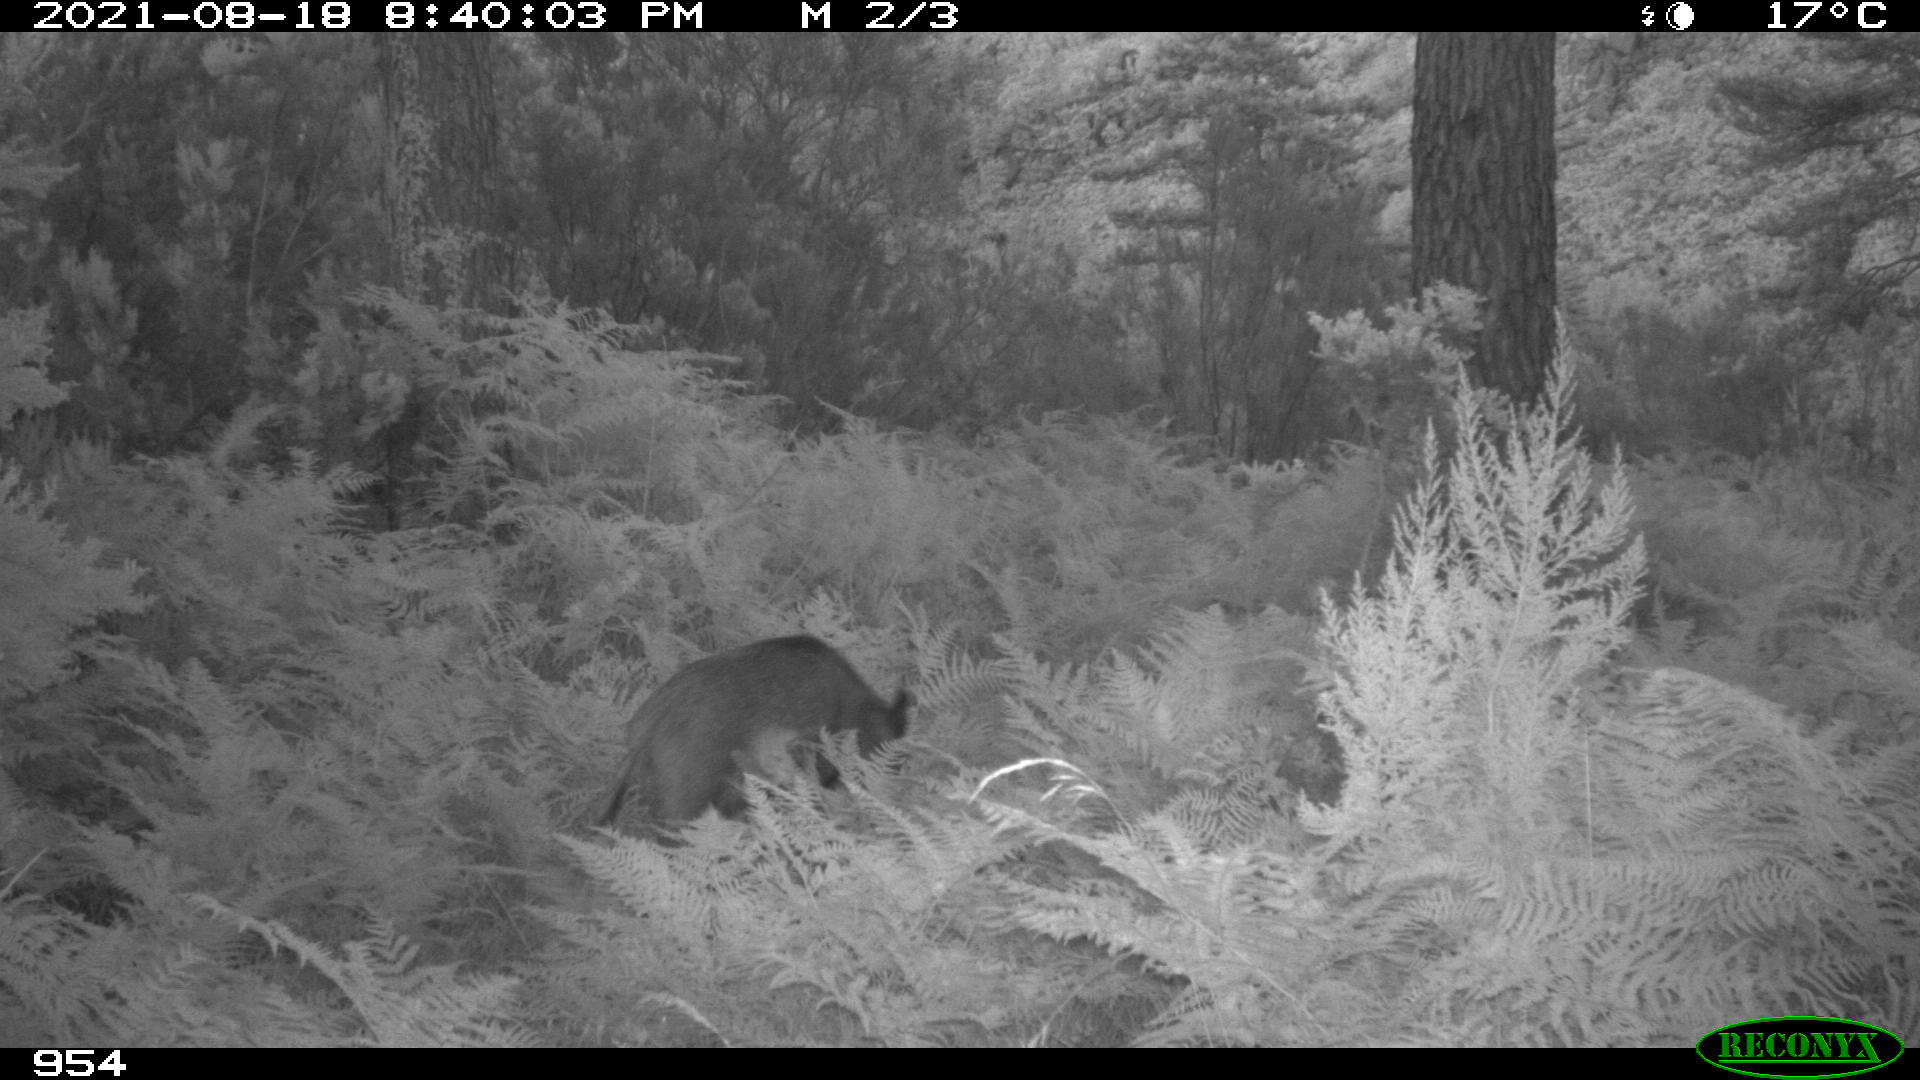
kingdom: Animalia
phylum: Chordata
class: Mammalia
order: Artiodactyla
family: Suidae
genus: Sus
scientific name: Sus scrofa
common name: Wild boar
